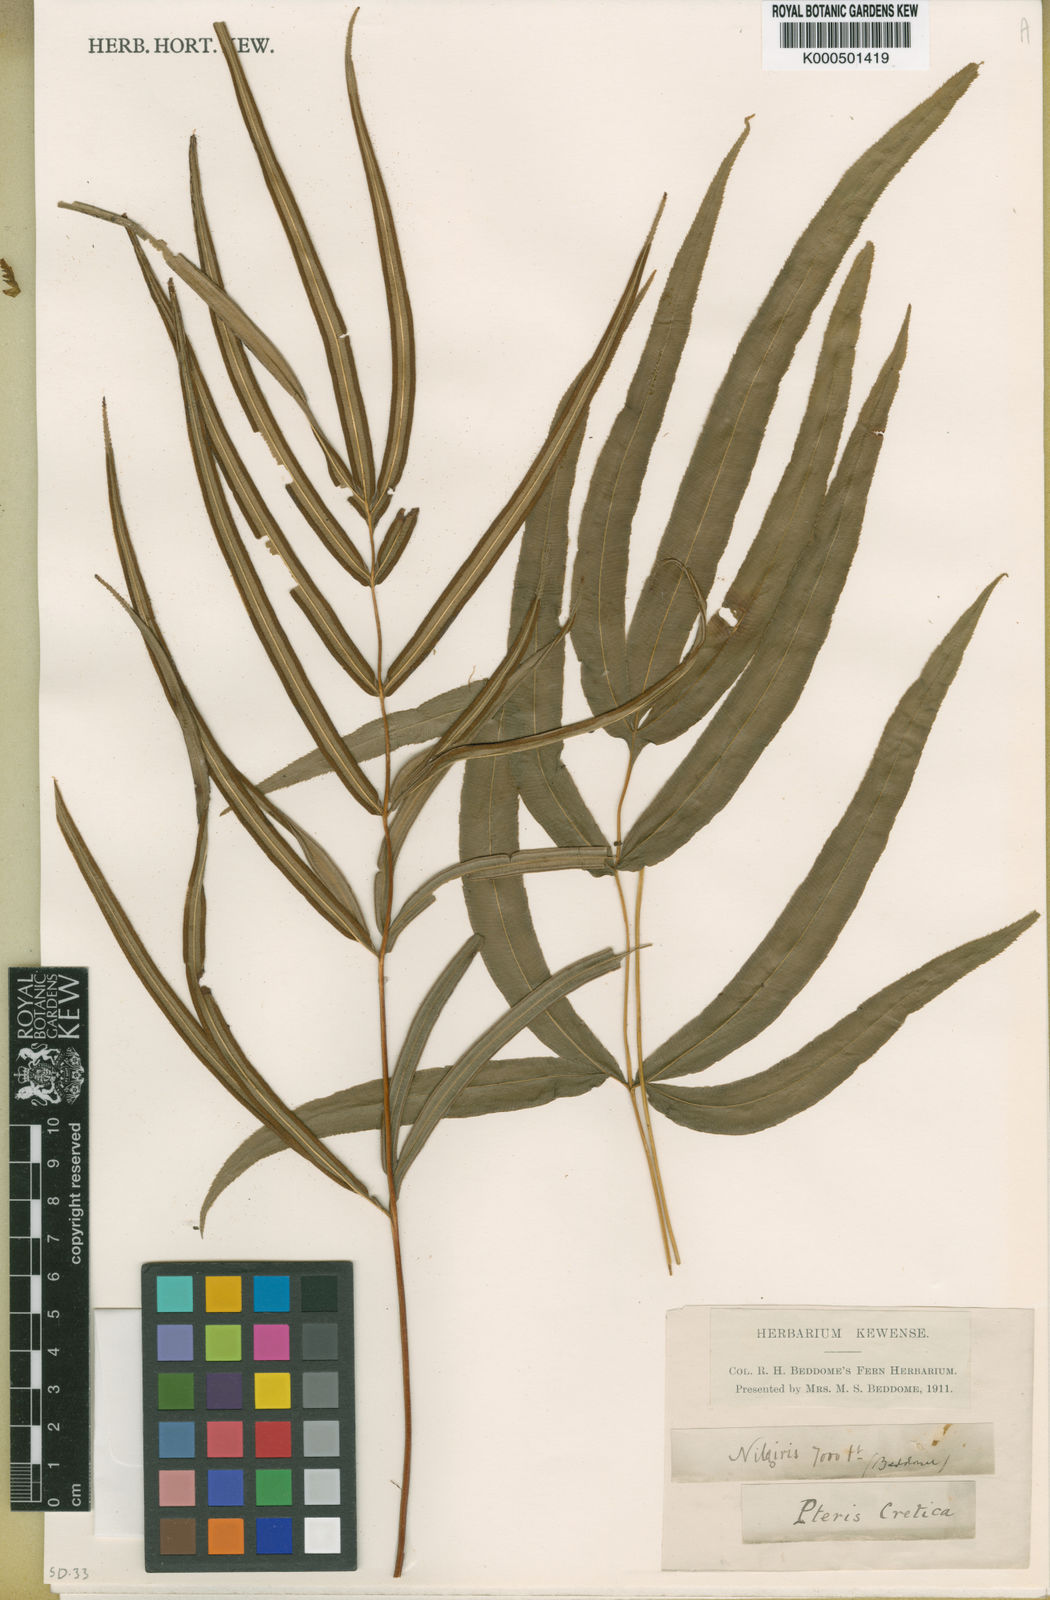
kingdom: Plantae
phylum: Tracheophyta
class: Polypodiopsida
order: Polypodiales
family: Pteridaceae
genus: Pteris
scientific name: Pteris cretica
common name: Ribbon fern
